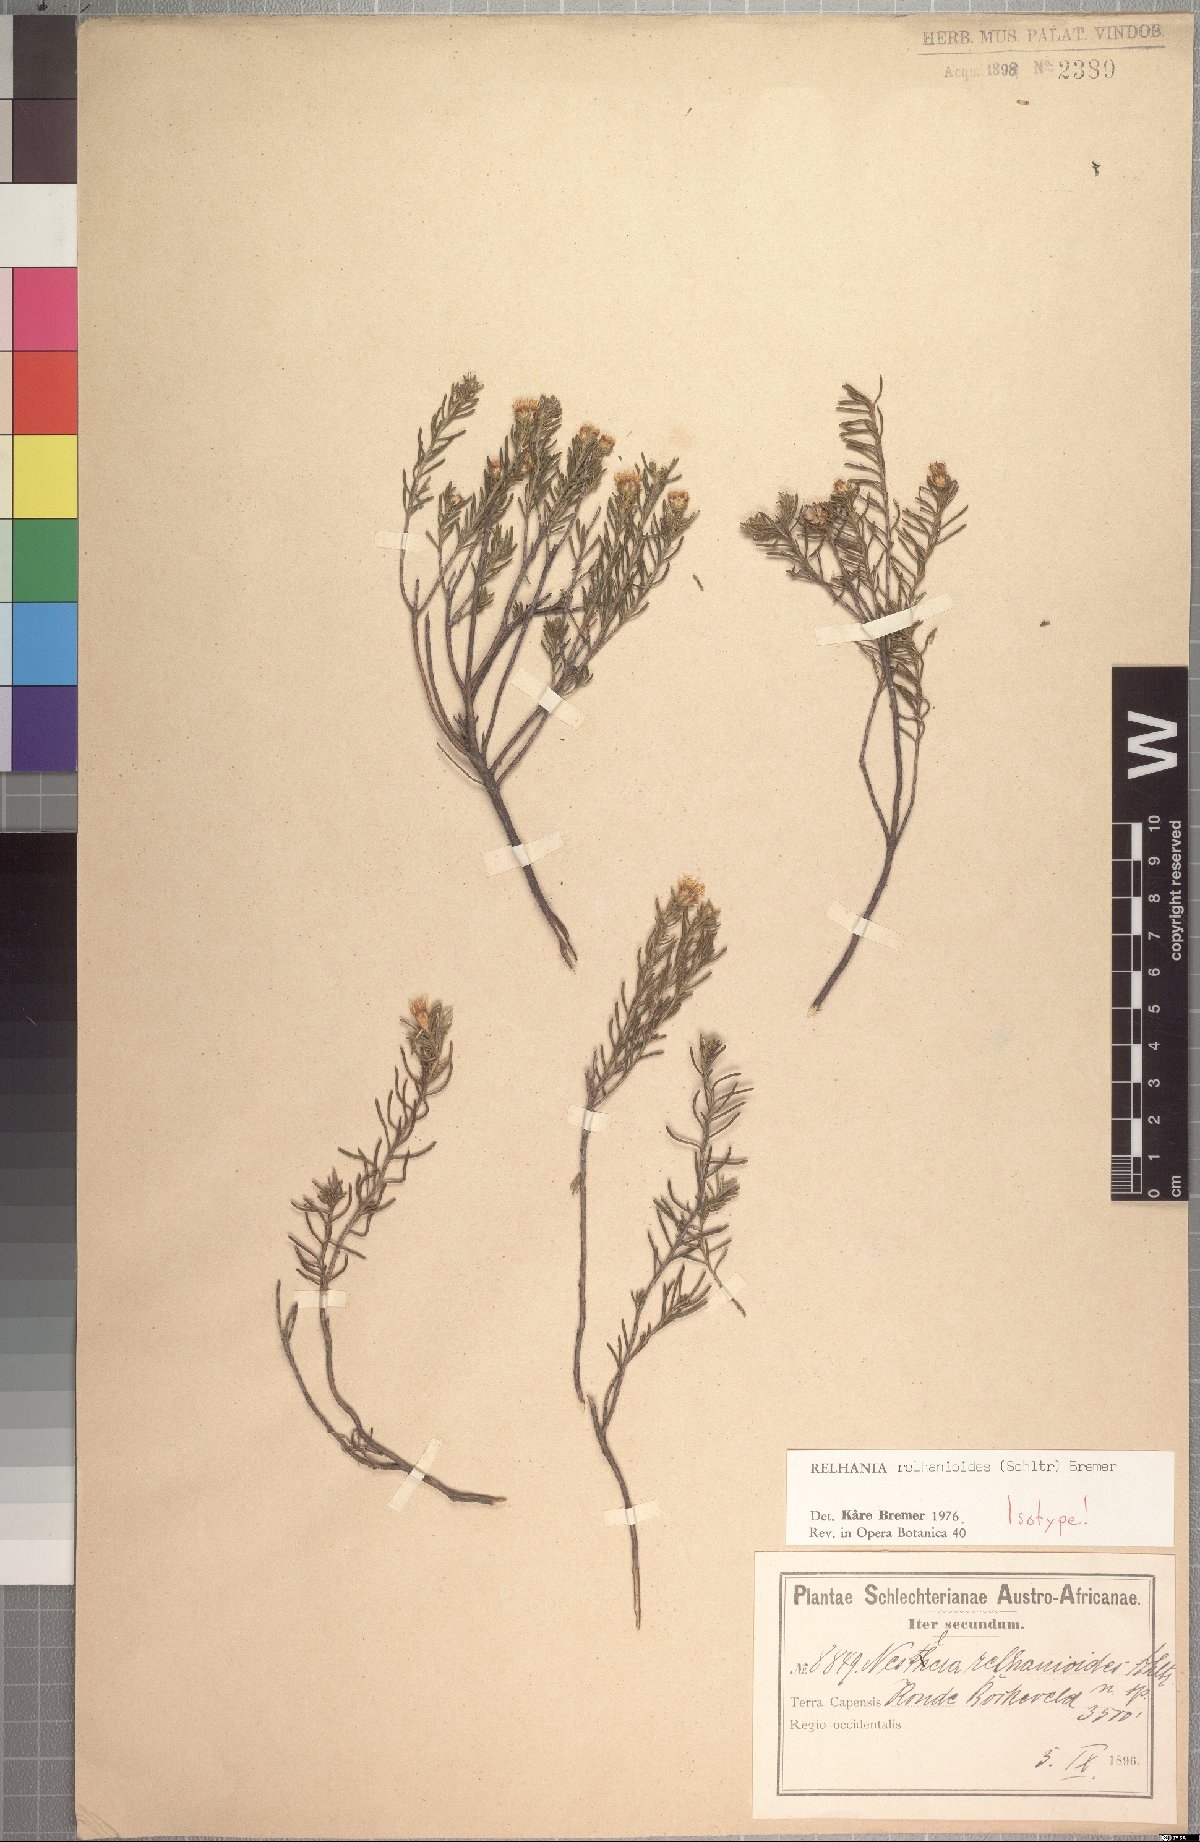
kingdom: Plantae
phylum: Tracheophyta
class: Magnoliopsida
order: Asterales
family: Asteraceae
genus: Oedera
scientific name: Oedera relhanioides
